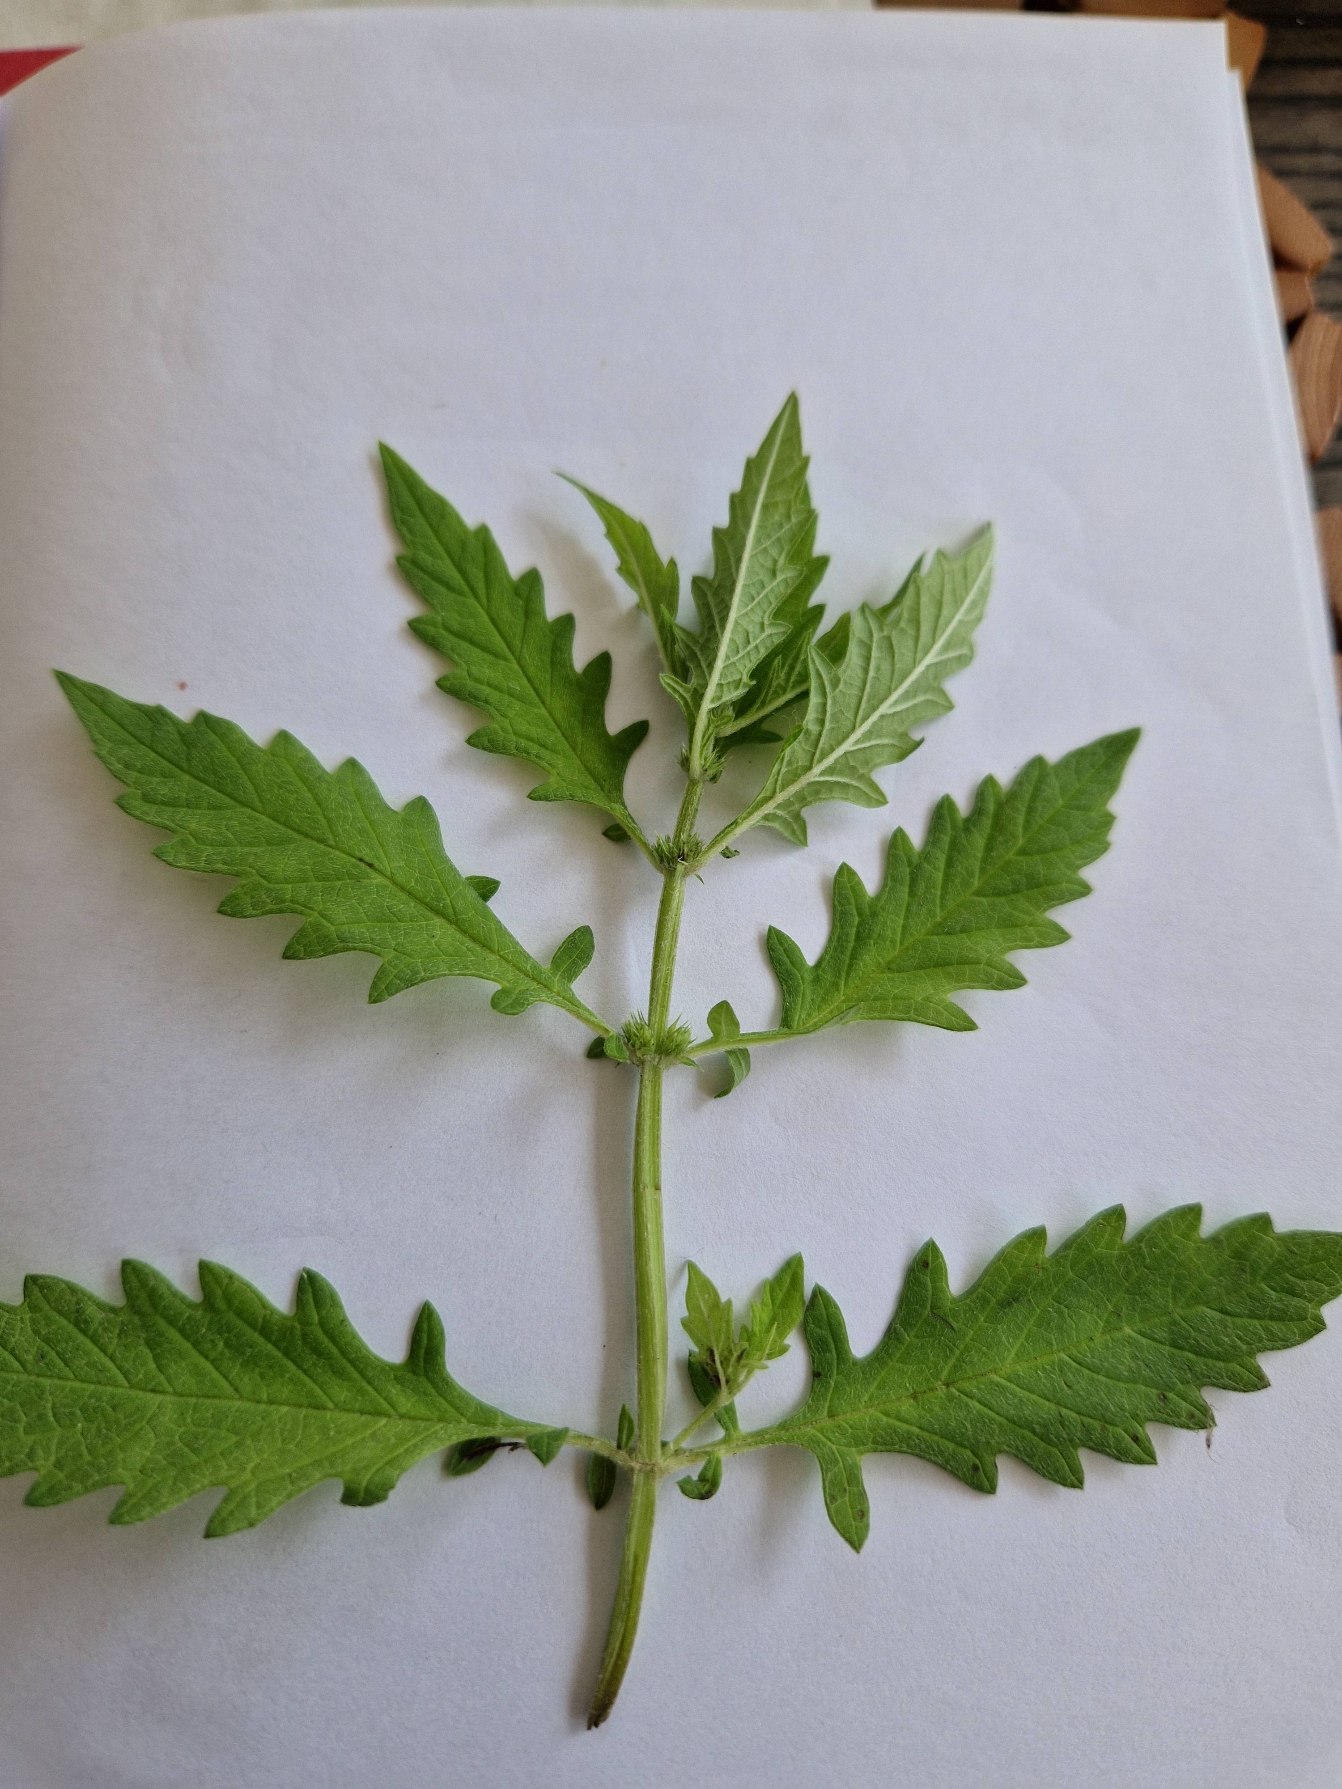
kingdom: Plantae
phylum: Tracheophyta
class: Magnoliopsida
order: Lamiales
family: Lamiaceae
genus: Lycopus
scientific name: Lycopus europaeus
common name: Sværtevæld
